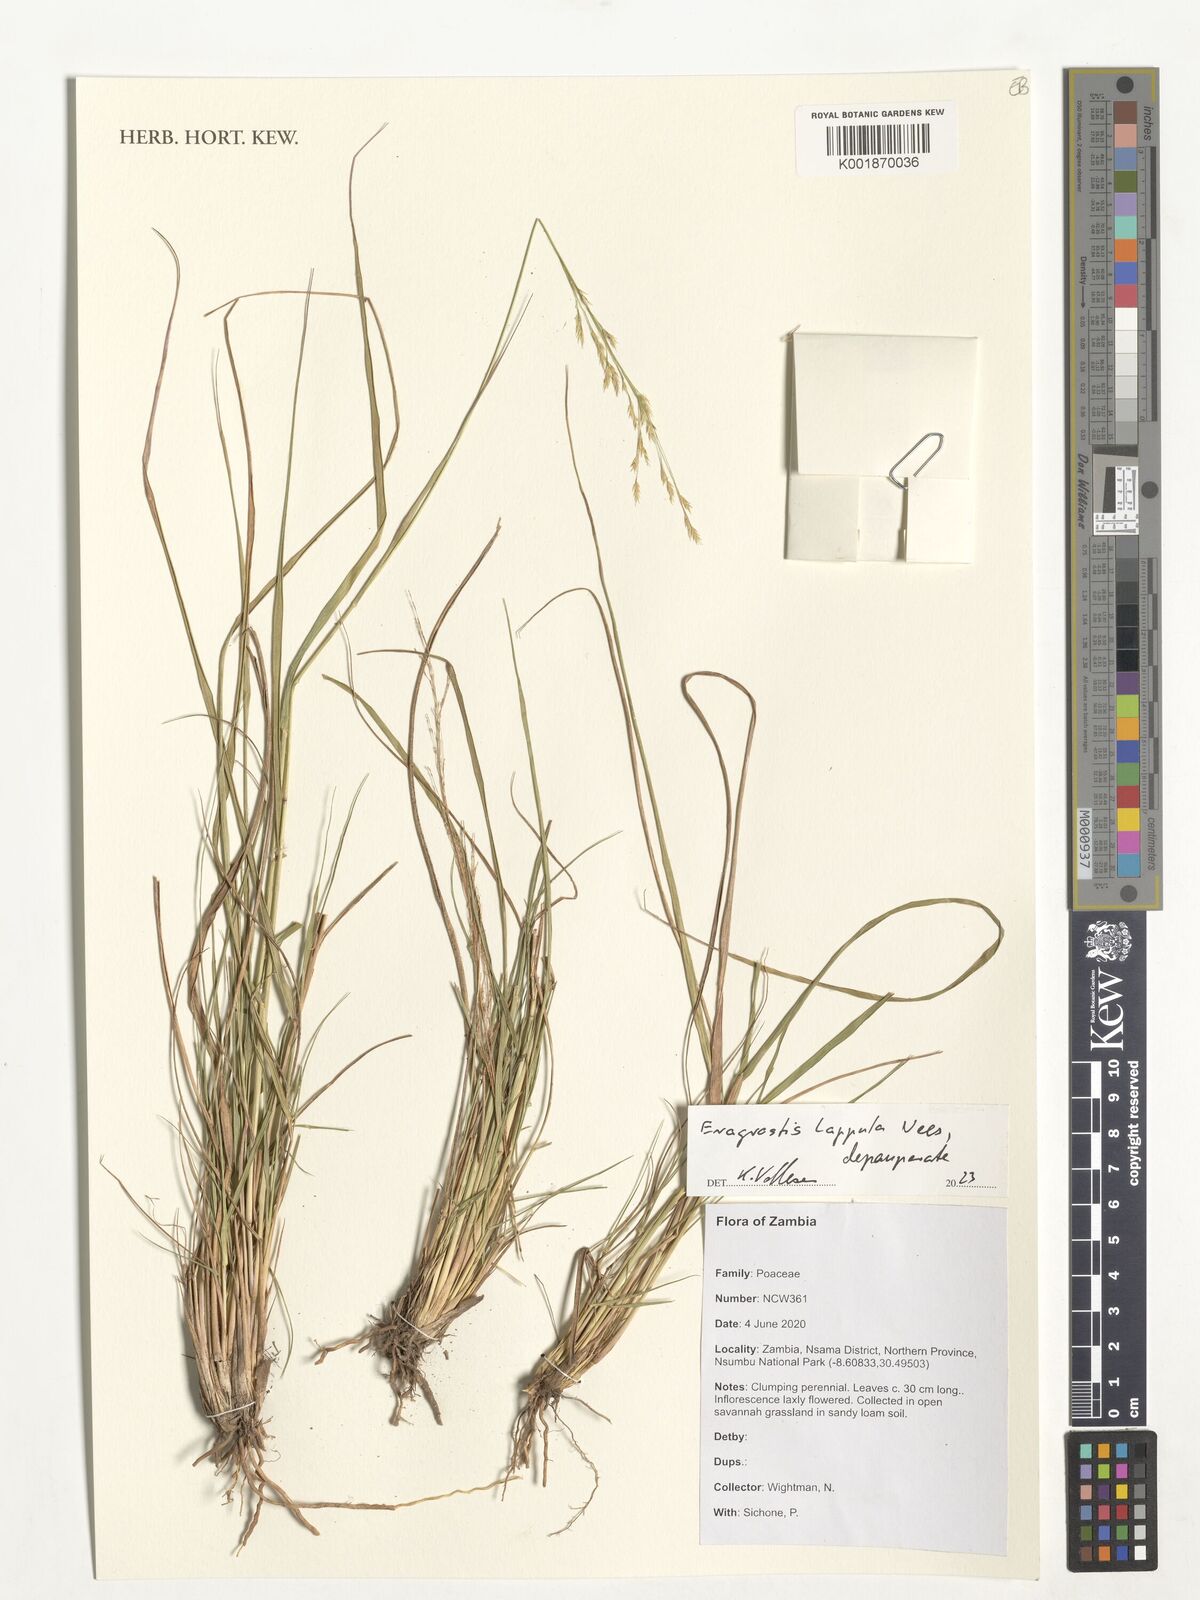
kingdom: Plantae
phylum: Tracheophyta
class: Liliopsida
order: Poales
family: Poaceae
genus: Eragrostis
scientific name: Eragrostis lappula
